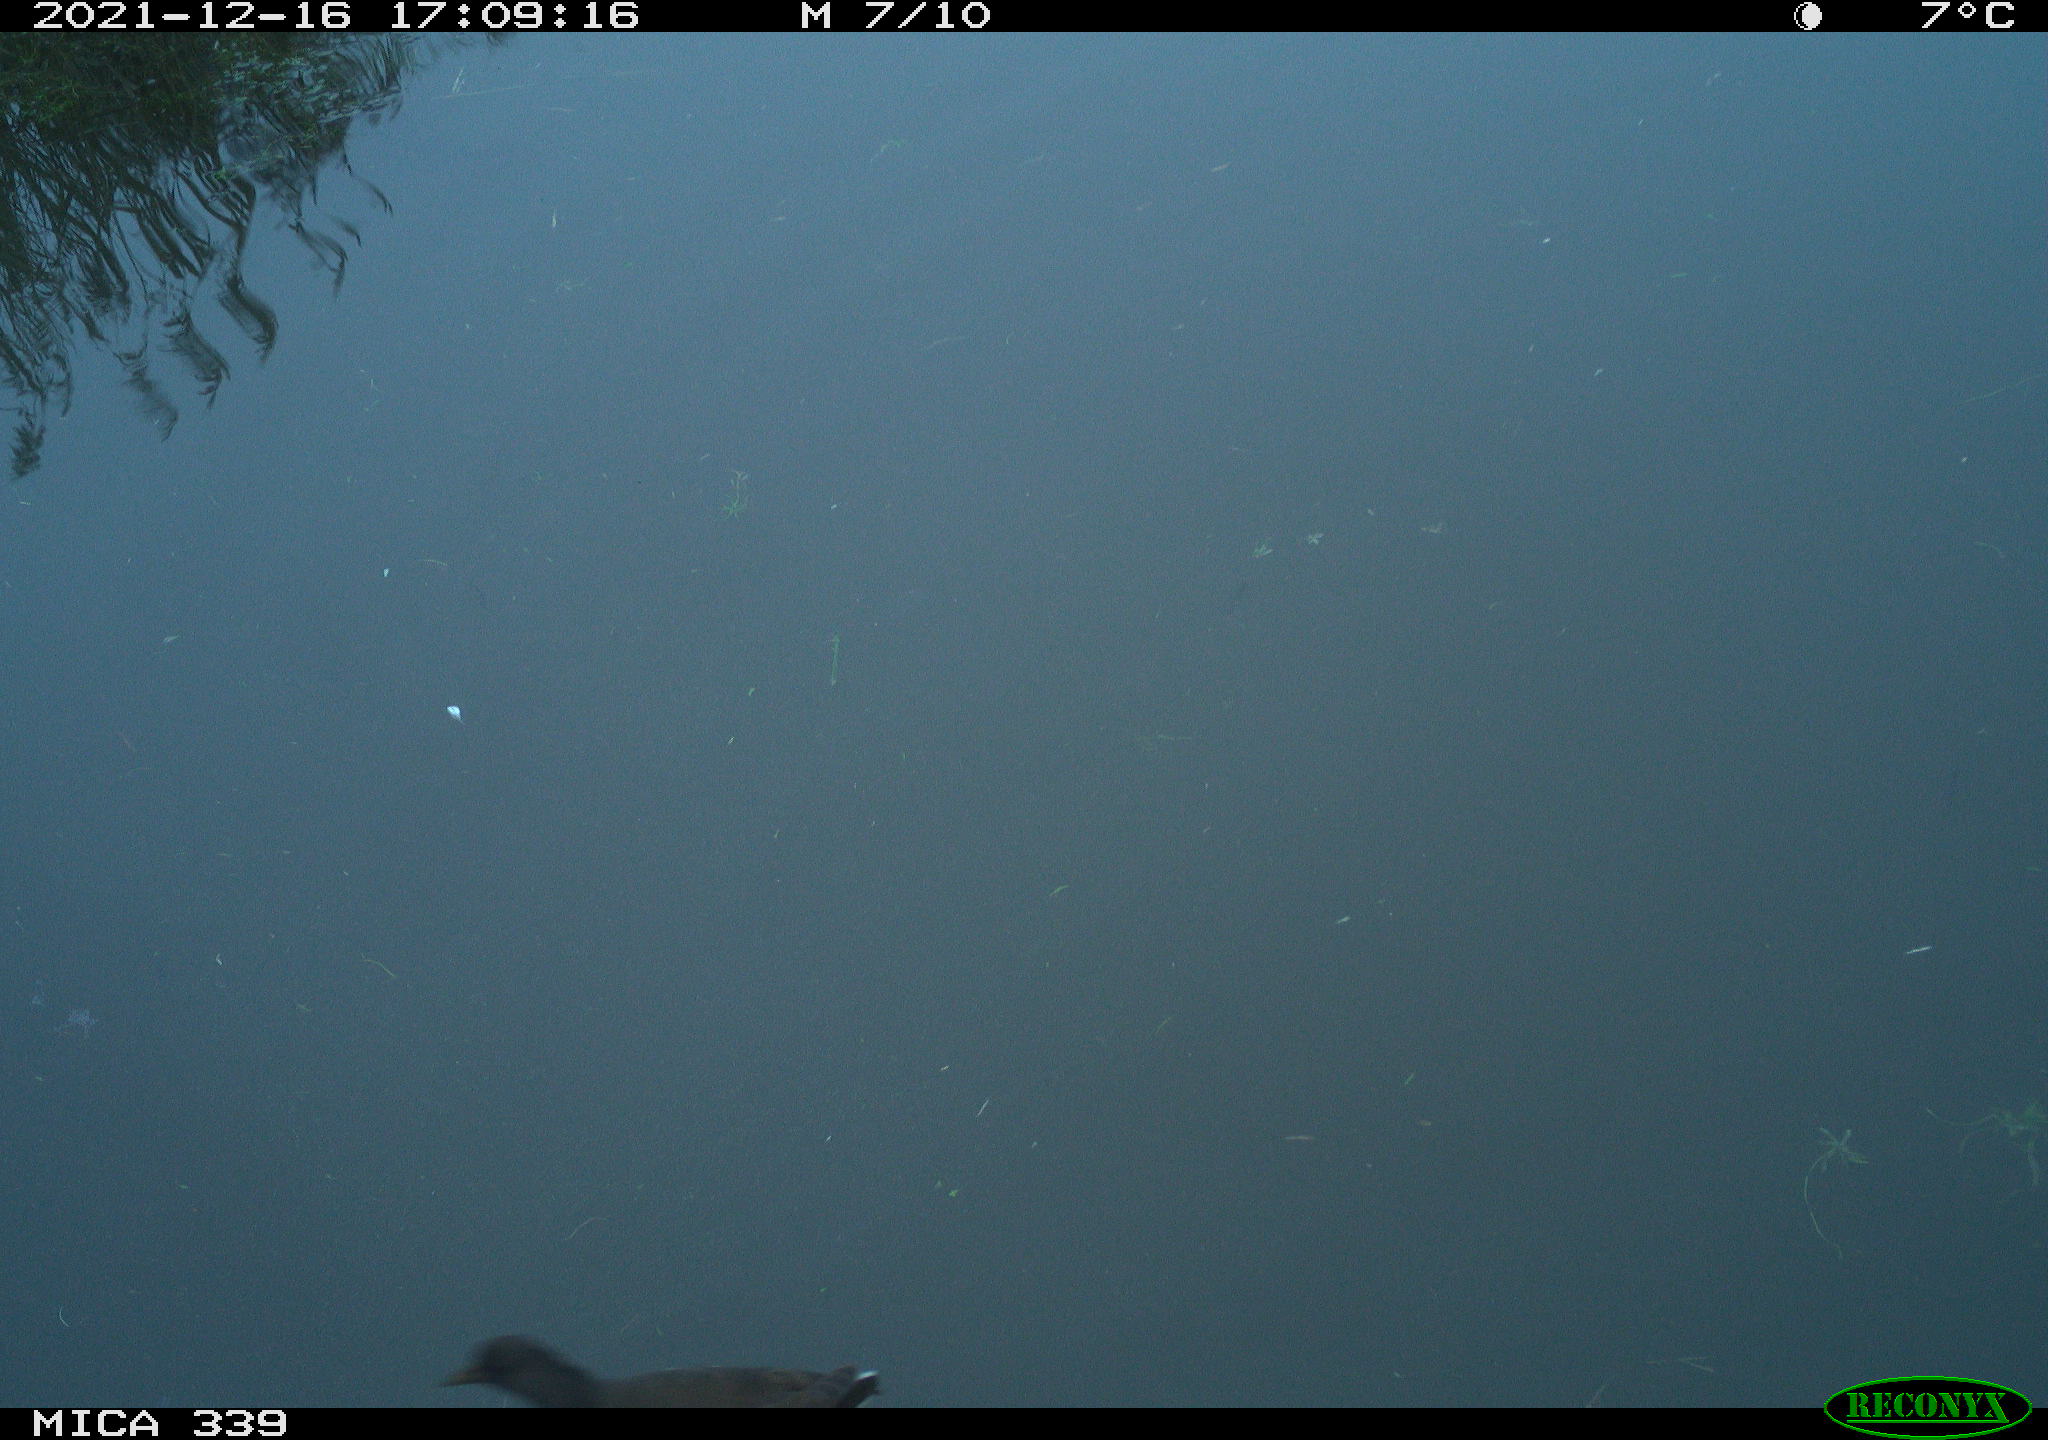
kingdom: Animalia
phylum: Chordata
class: Aves
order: Gruiformes
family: Rallidae
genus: Gallinula
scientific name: Gallinula chloropus
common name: Common moorhen
